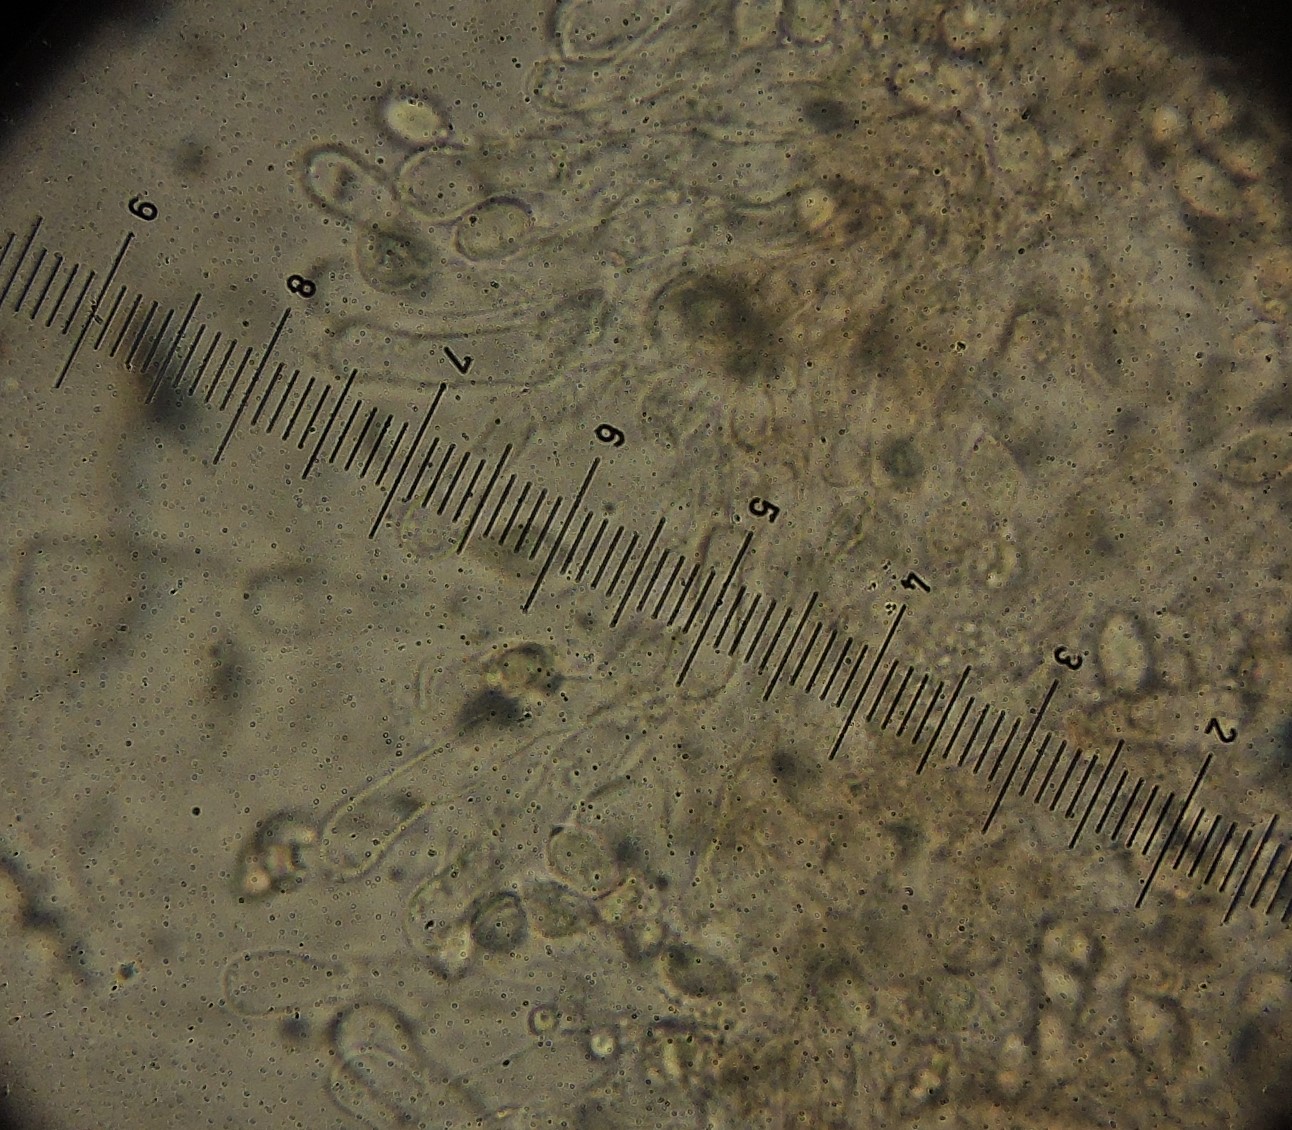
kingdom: Fungi
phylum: Basidiomycota
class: Agaricomycetes
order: Agaricales
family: Tubariaceae
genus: Flammulaster
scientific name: Flammulaster carpophilus
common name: blegrosa grynskælhat
